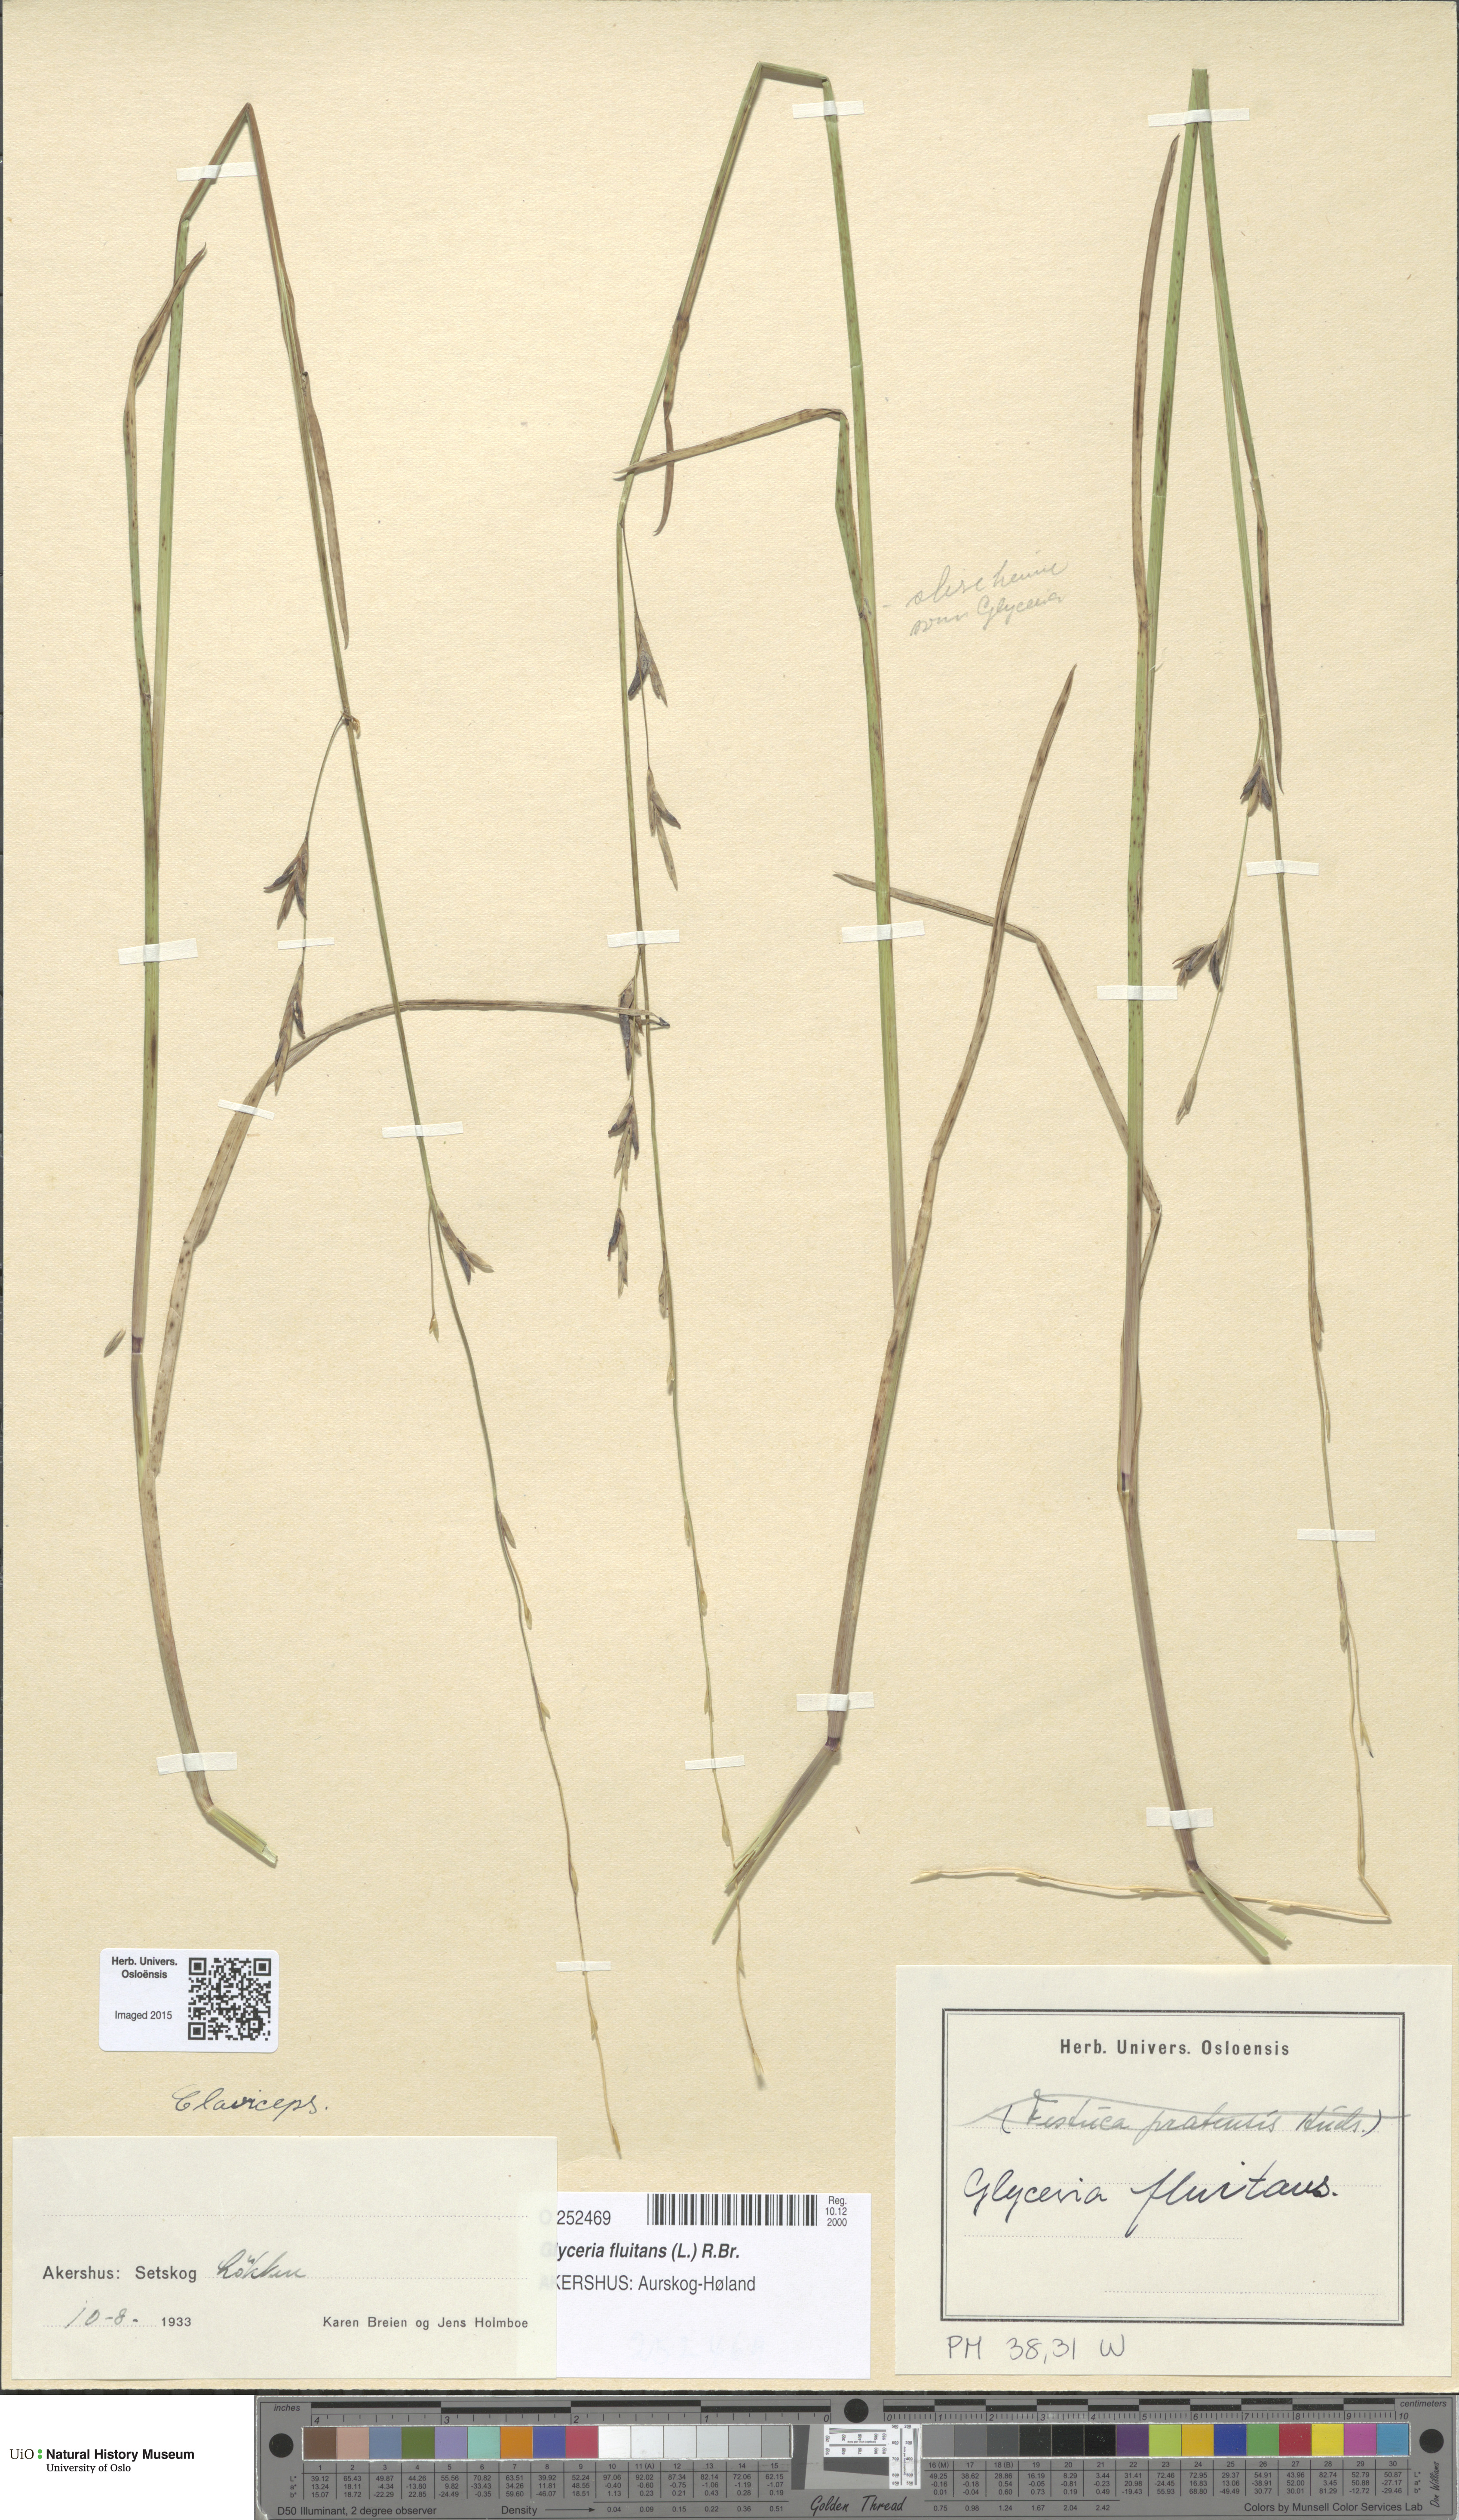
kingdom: Plantae
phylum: Tracheophyta
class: Liliopsida
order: Poales
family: Poaceae
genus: Glyceria
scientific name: Glyceria fluitans
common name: Floating sweet-grass
